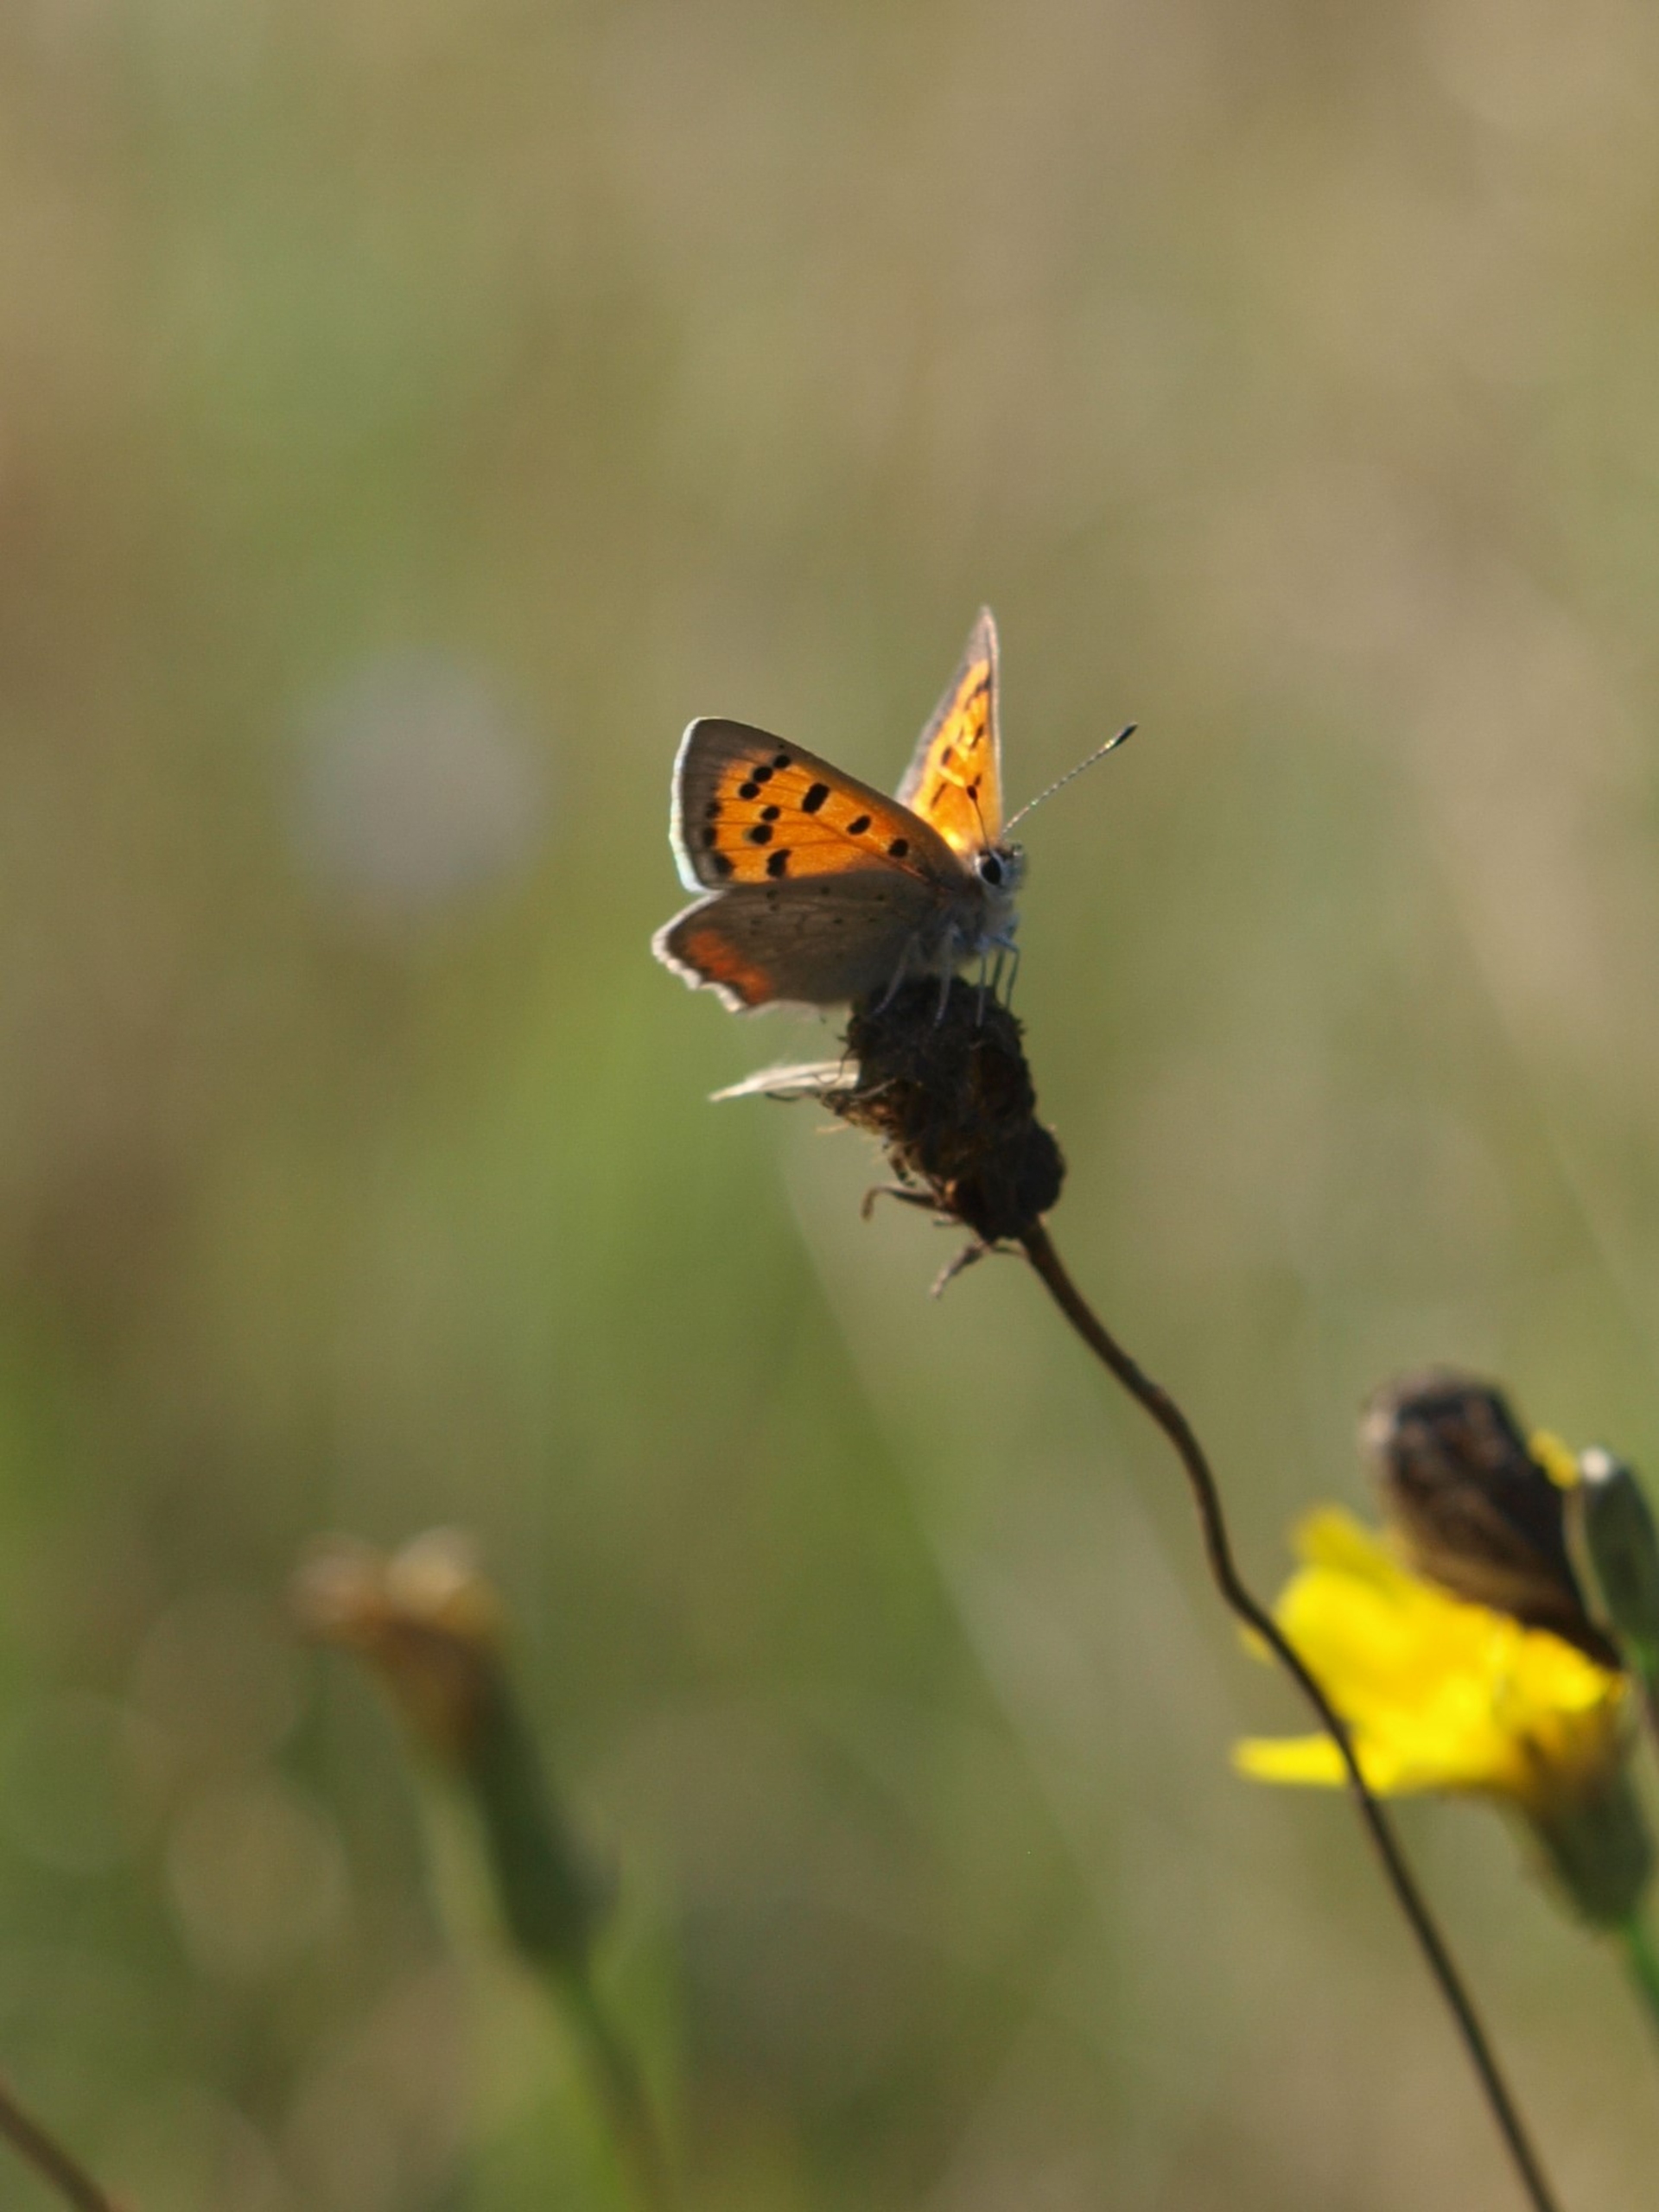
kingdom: Animalia
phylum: Arthropoda
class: Insecta
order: Lepidoptera
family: Lycaenidae
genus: Lycaena
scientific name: Lycaena phlaeas
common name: Lille ildfugl
